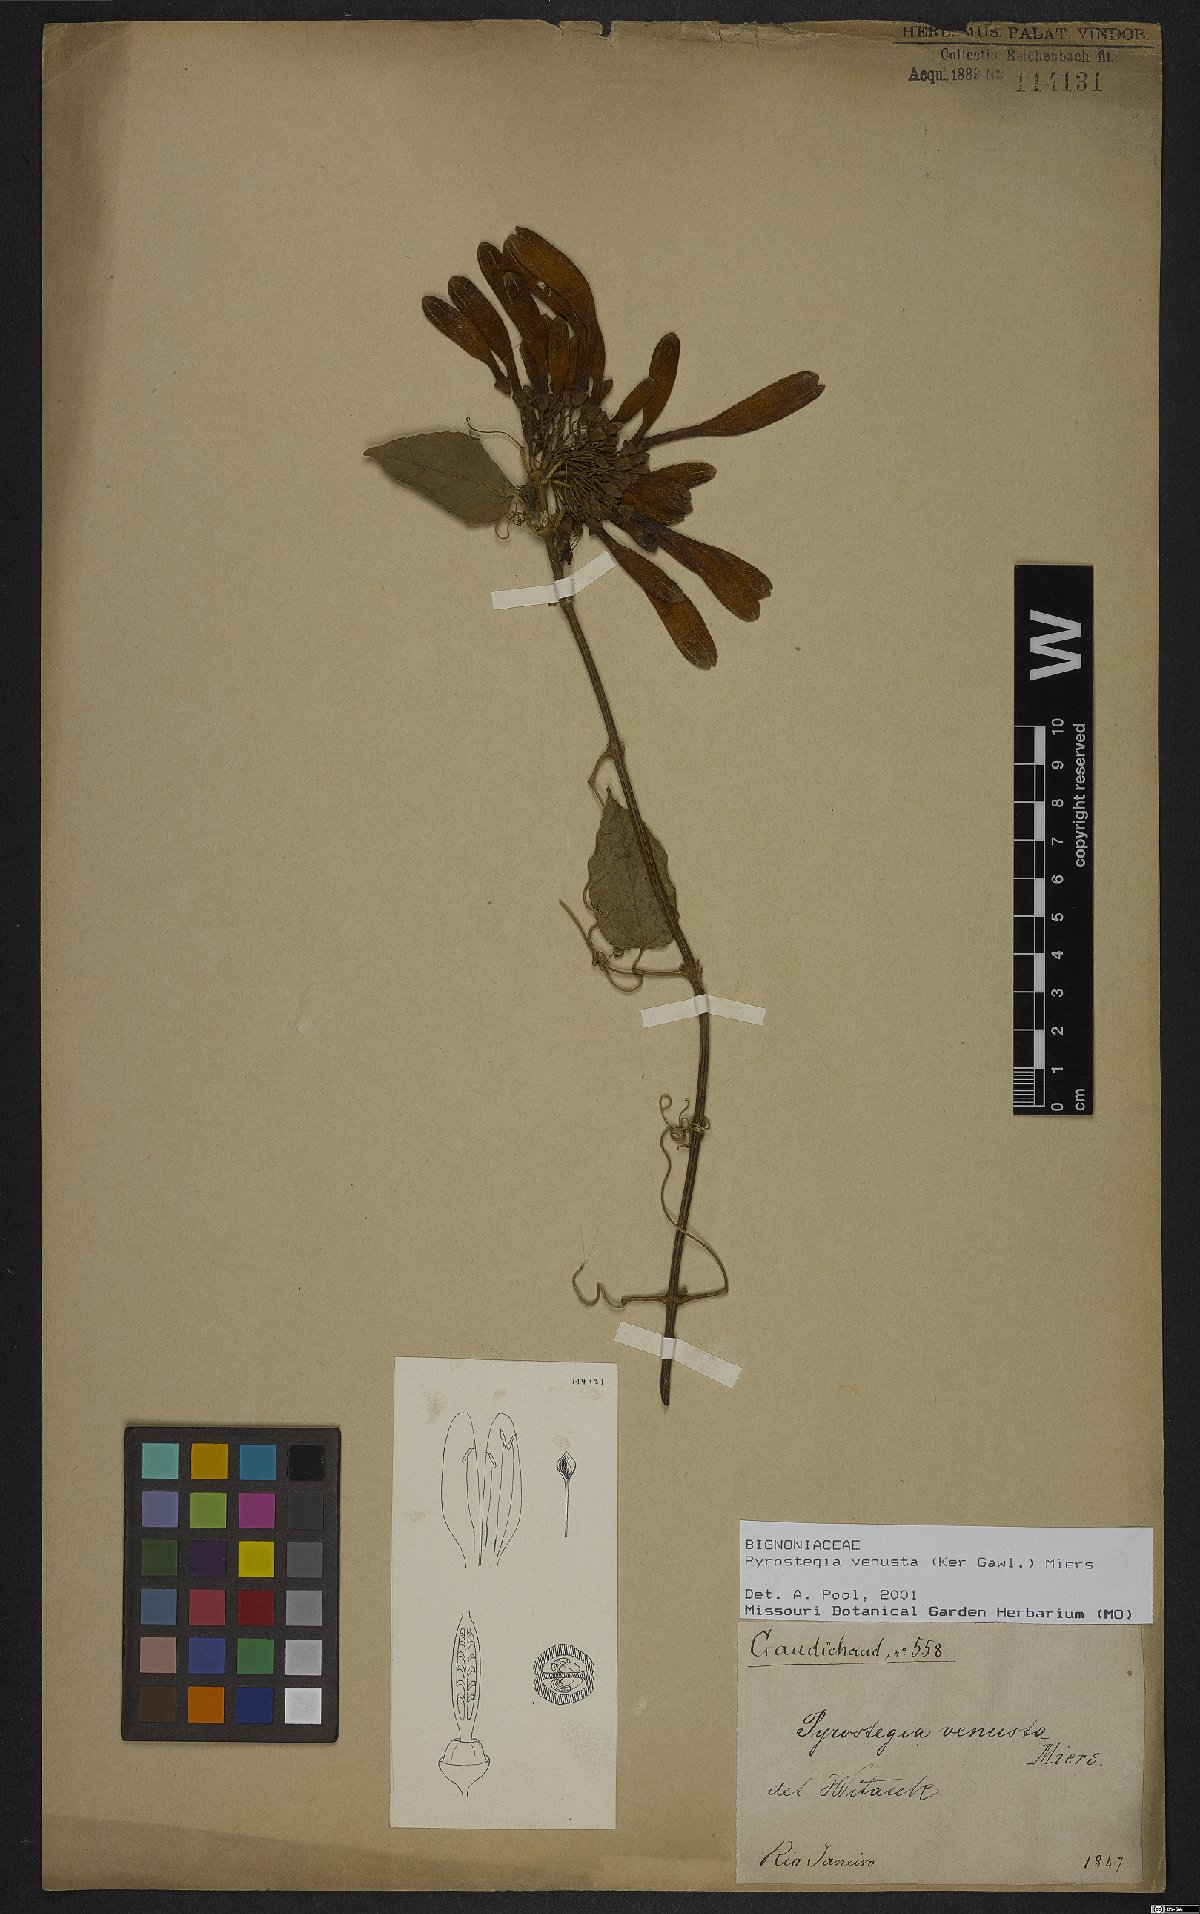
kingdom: Plantae
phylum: Tracheophyta
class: Magnoliopsida
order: Lamiales
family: Bignoniaceae
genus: Pyrostegia
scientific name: Pyrostegia venusta
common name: Flamevine
